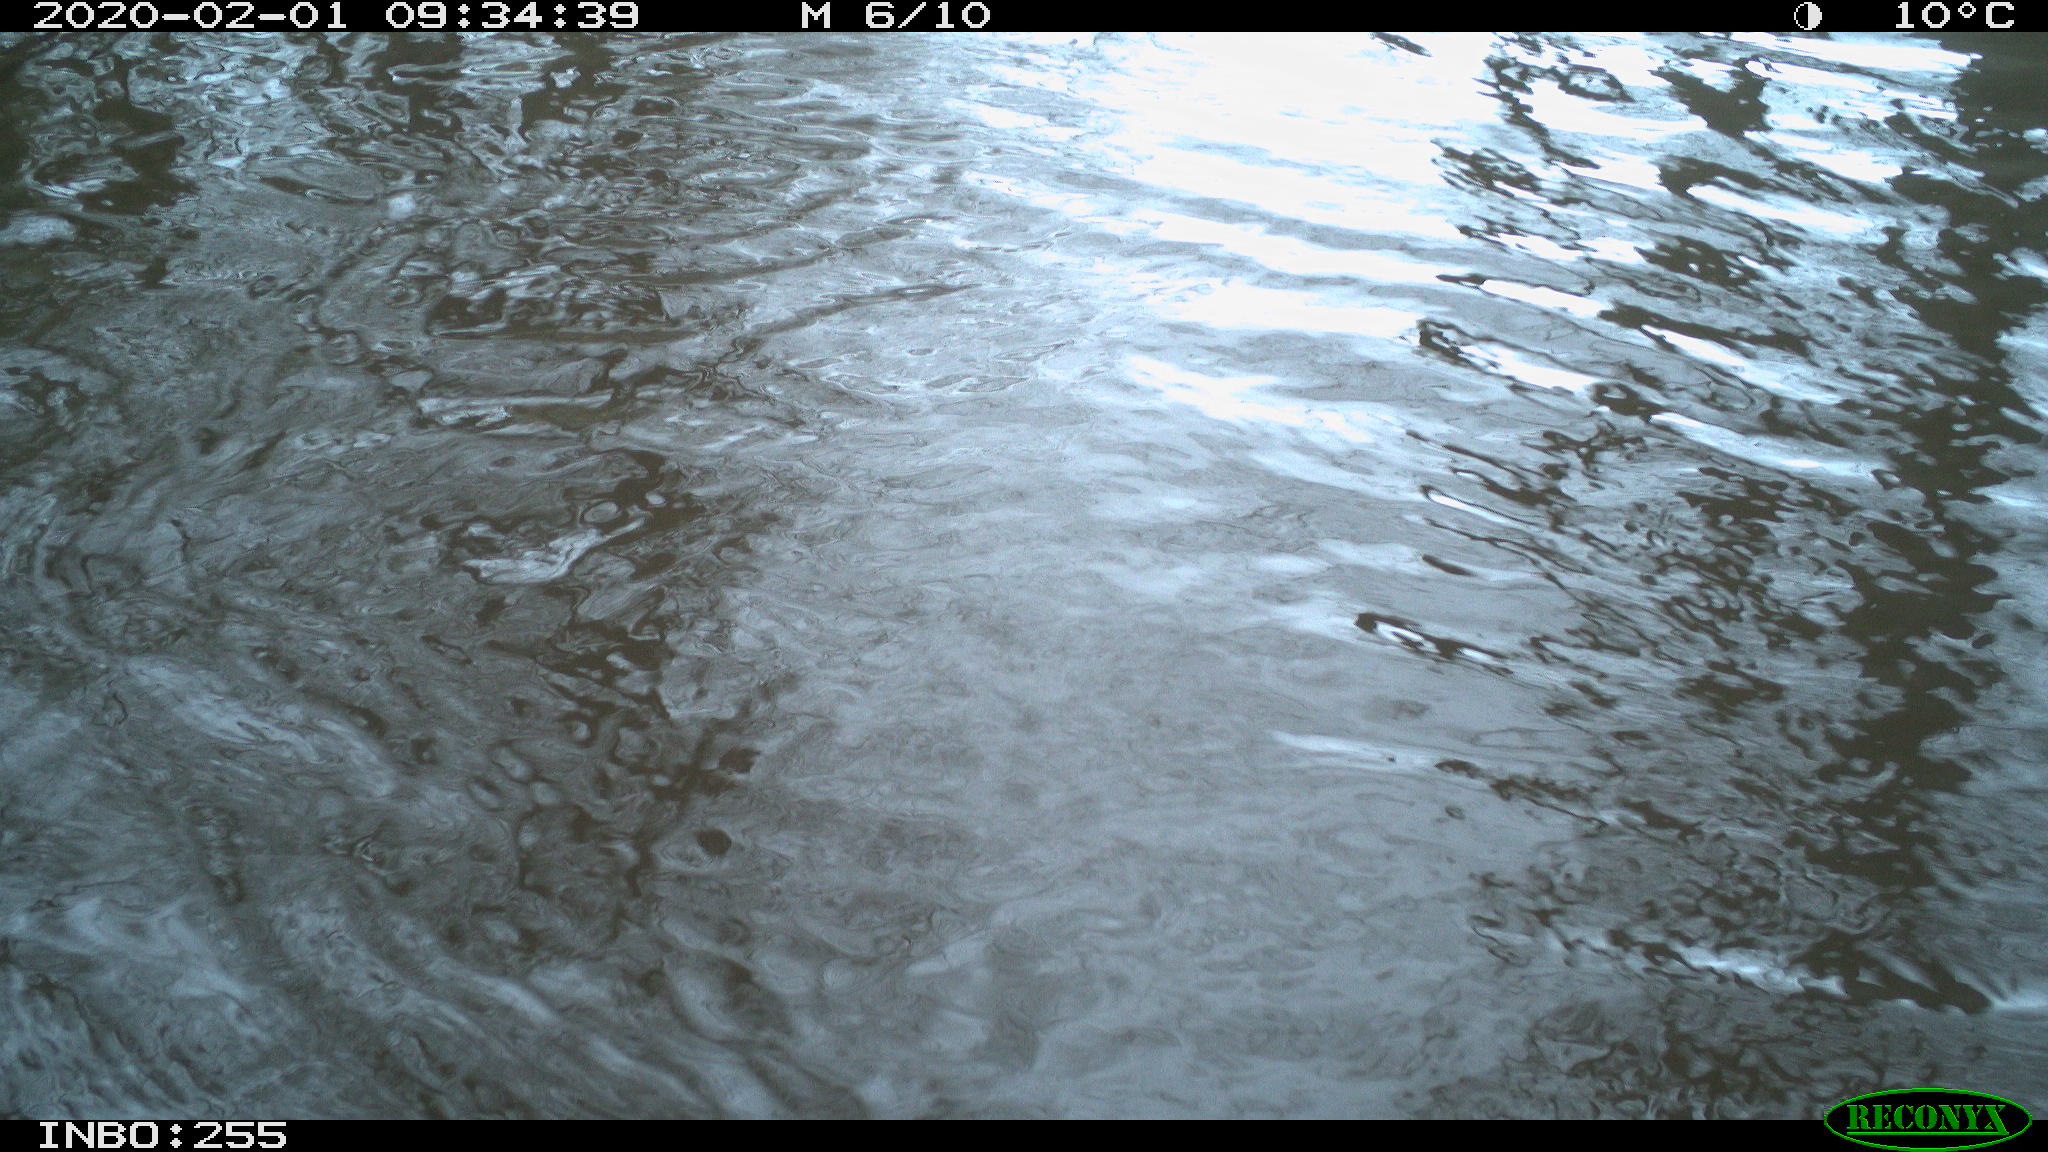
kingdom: Animalia
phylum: Chordata
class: Aves
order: Gruiformes
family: Rallidae
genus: Fulica
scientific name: Fulica atra
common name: Eurasian coot
